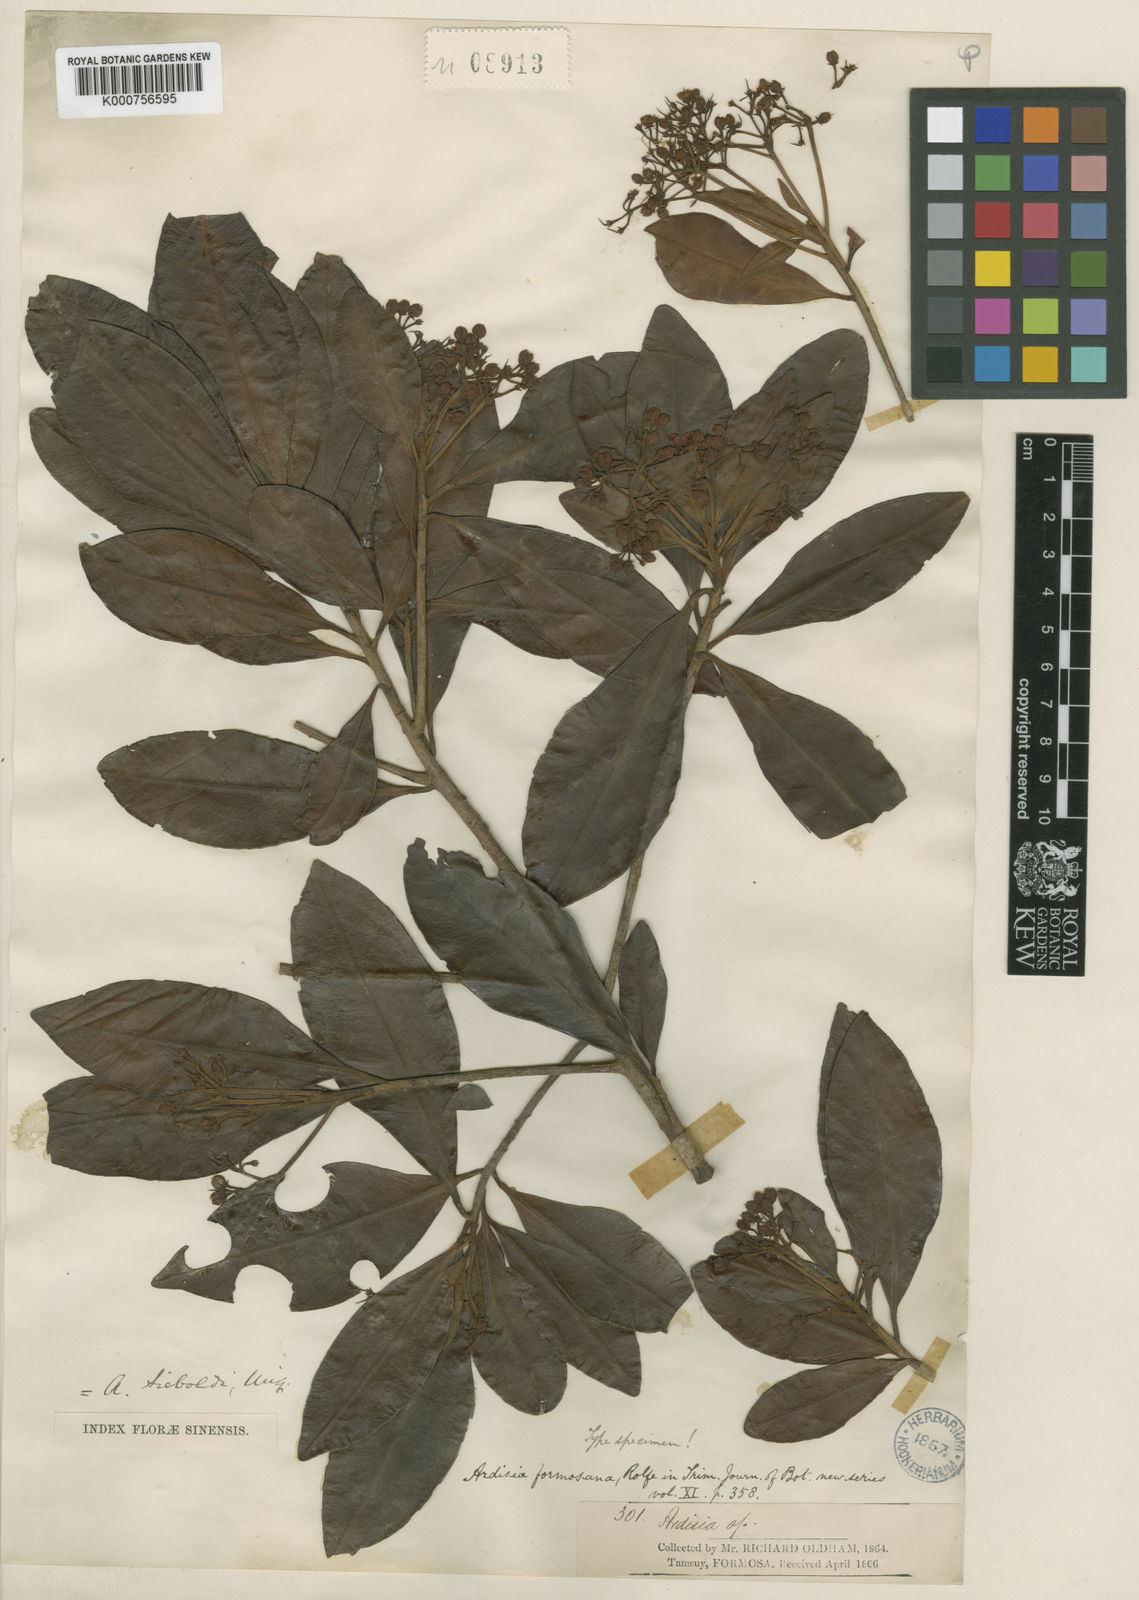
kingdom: Plantae
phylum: Tracheophyta
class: Magnoliopsida
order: Ericales
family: Primulaceae
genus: Ardisia
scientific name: Ardisia sieboldii
